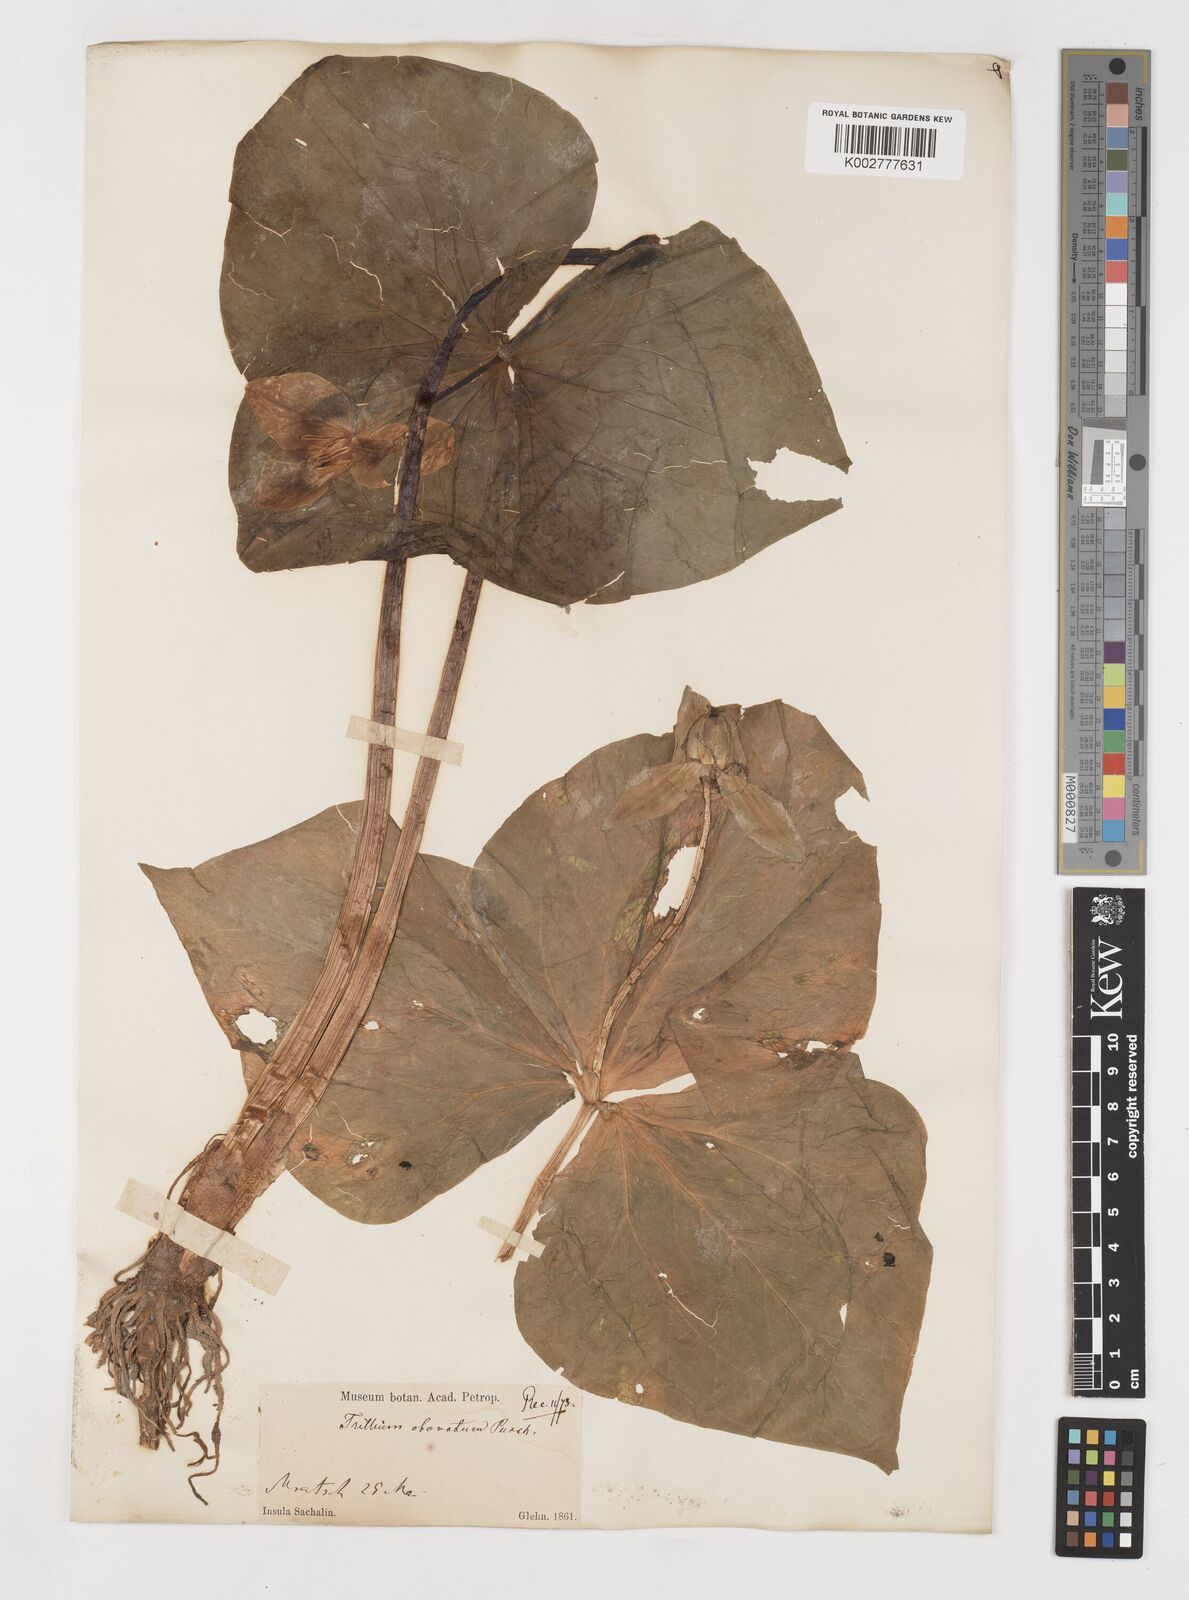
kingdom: Plantae
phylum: Tracheophyta
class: Liliopsida
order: Liliales
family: Melanthiaceae
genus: Trillium
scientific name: Trillium erectum
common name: Purple trillium
